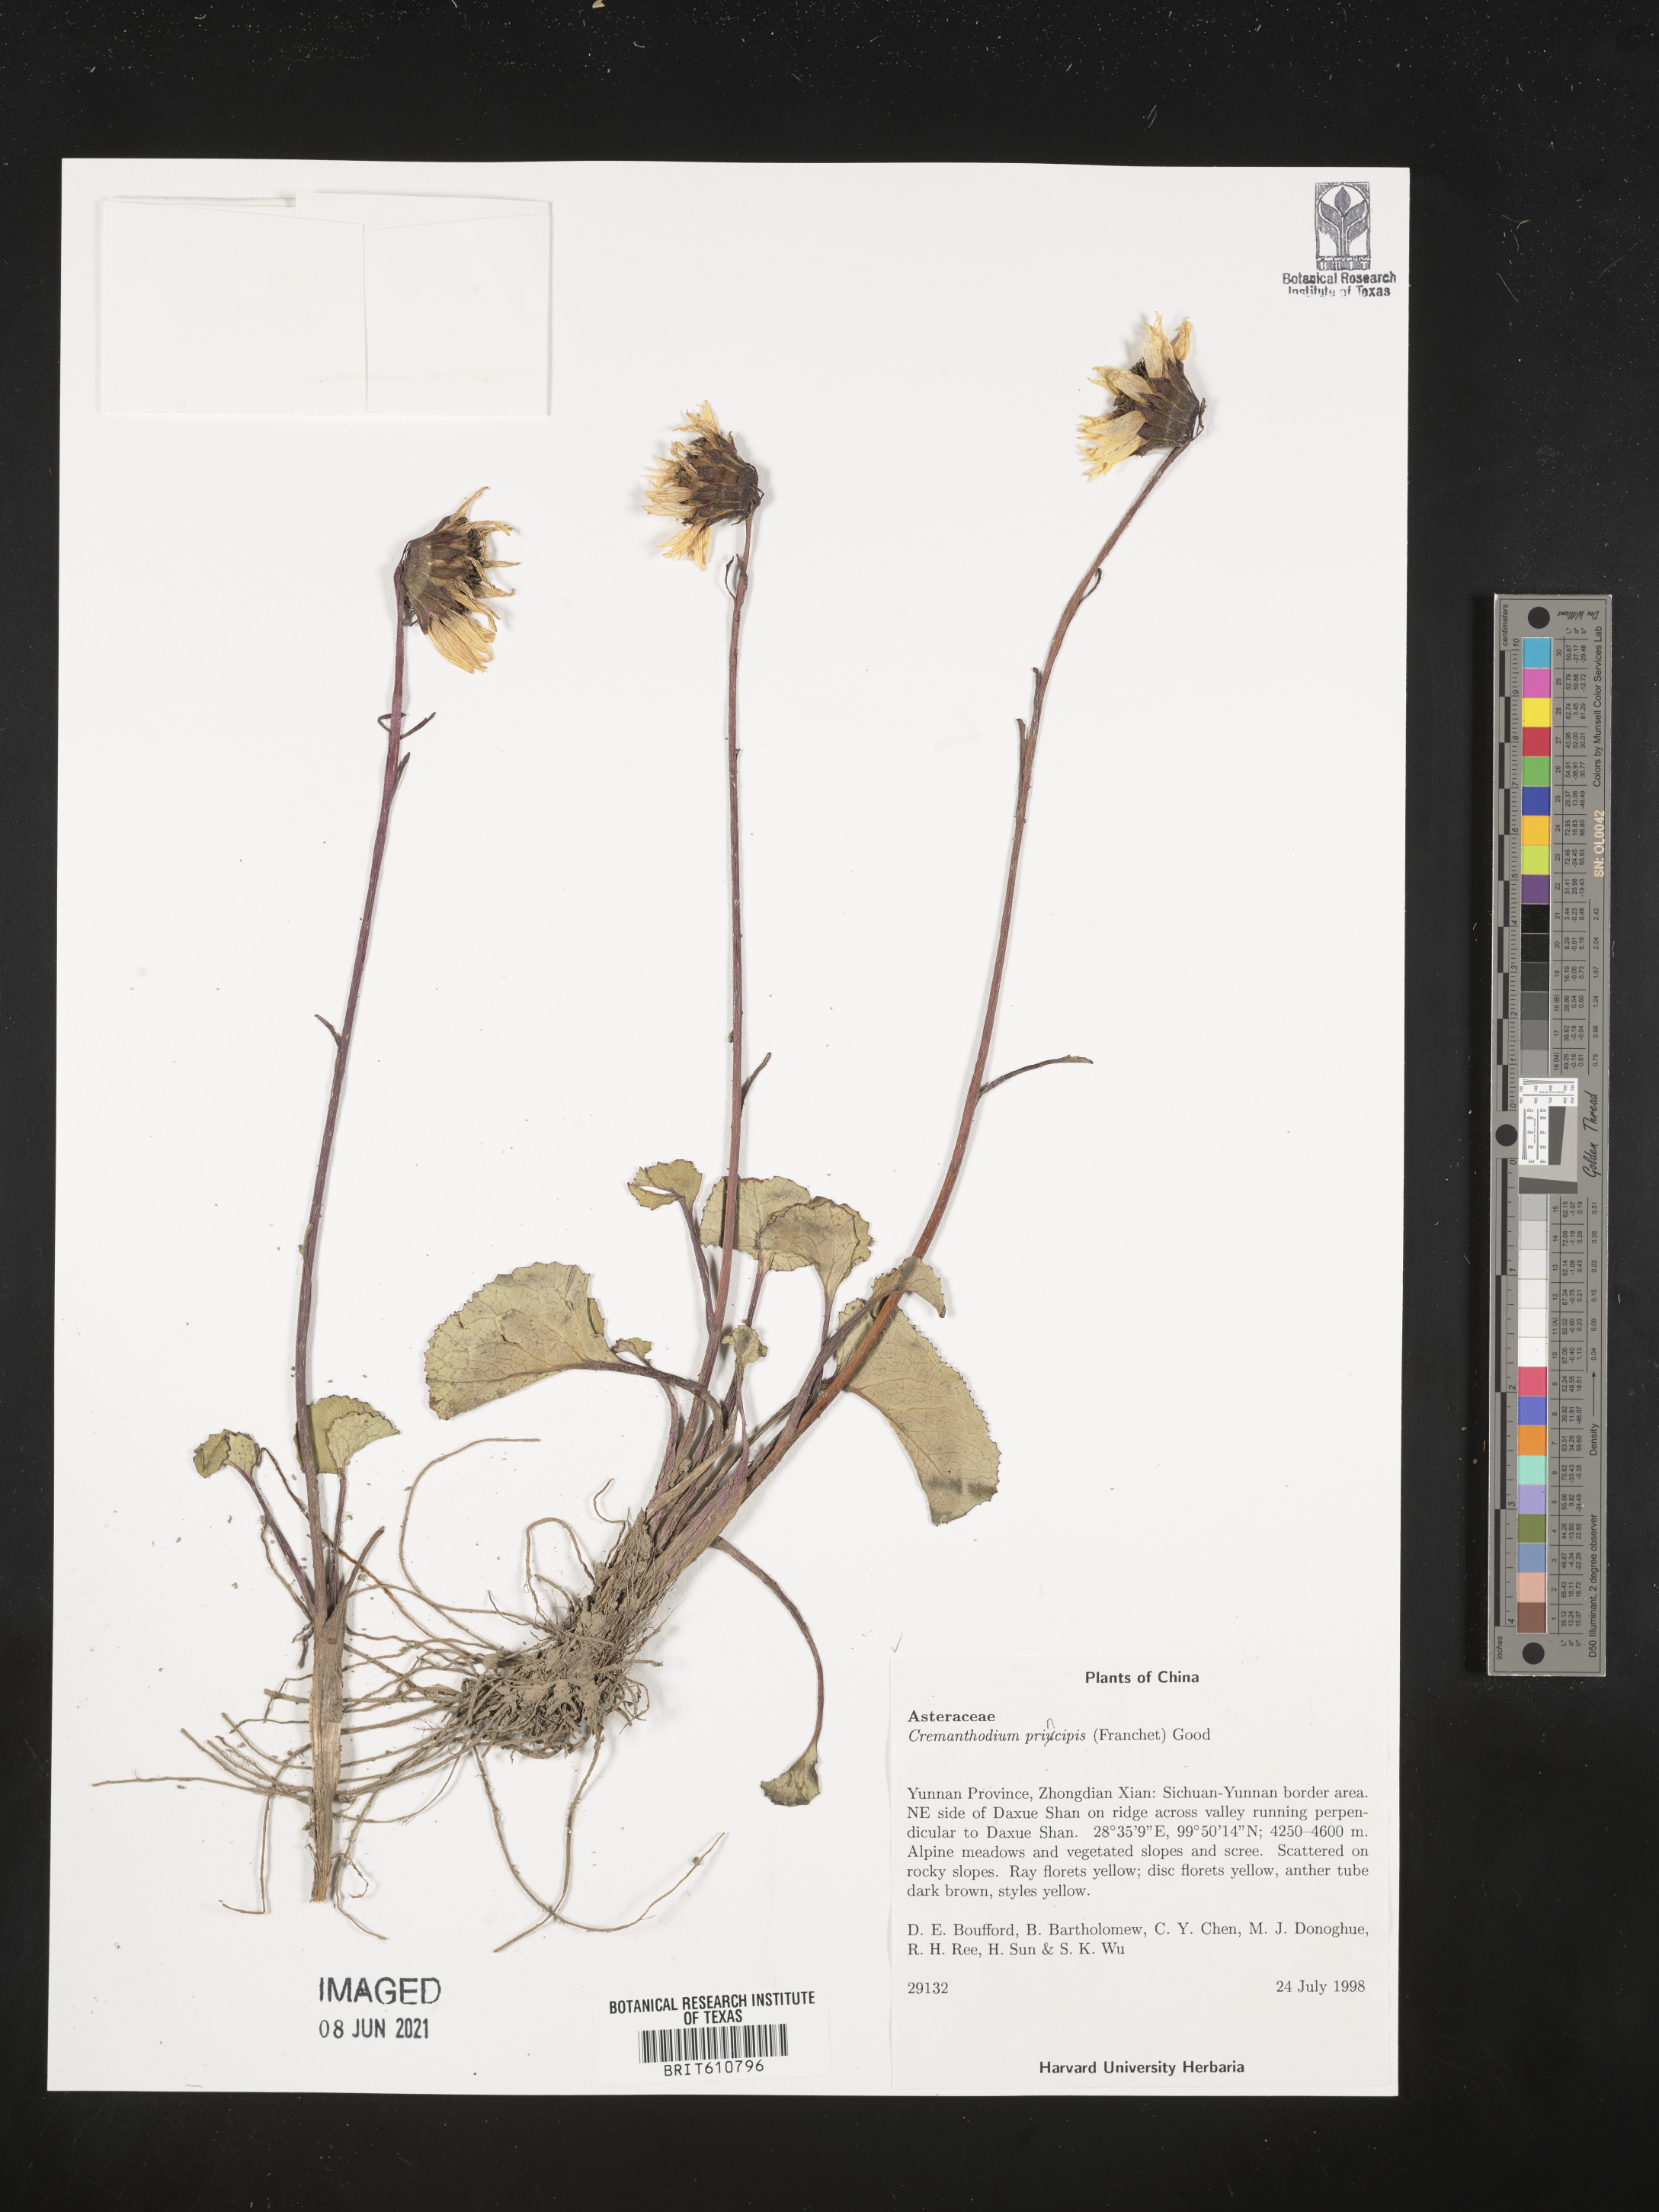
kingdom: Plantae
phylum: Tracheophyta
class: Magnoliopsida
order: Asterales
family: Asteraceae
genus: Cremanthodium
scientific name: Cremanthodium principis
